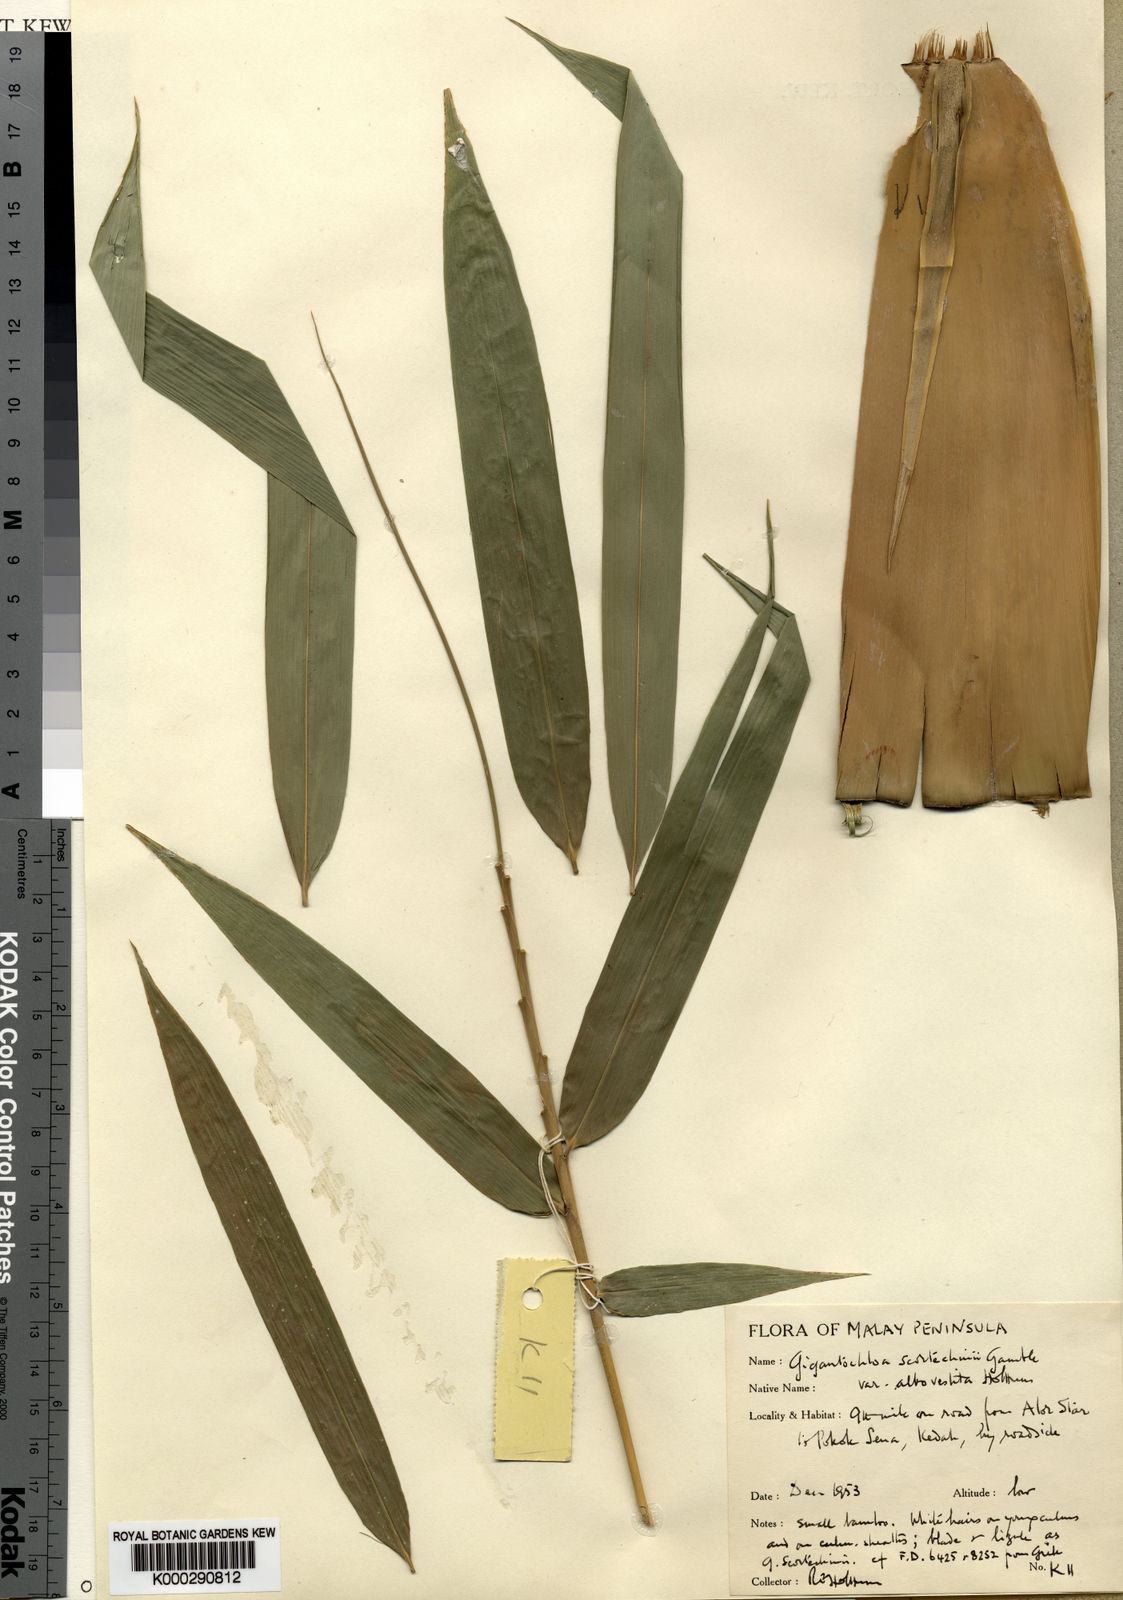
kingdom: Plantae
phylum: Tracheophyta
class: Liliopsida
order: Poales
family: Poaceae
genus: Gigantochloa
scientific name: Gigantochloa albovestita
